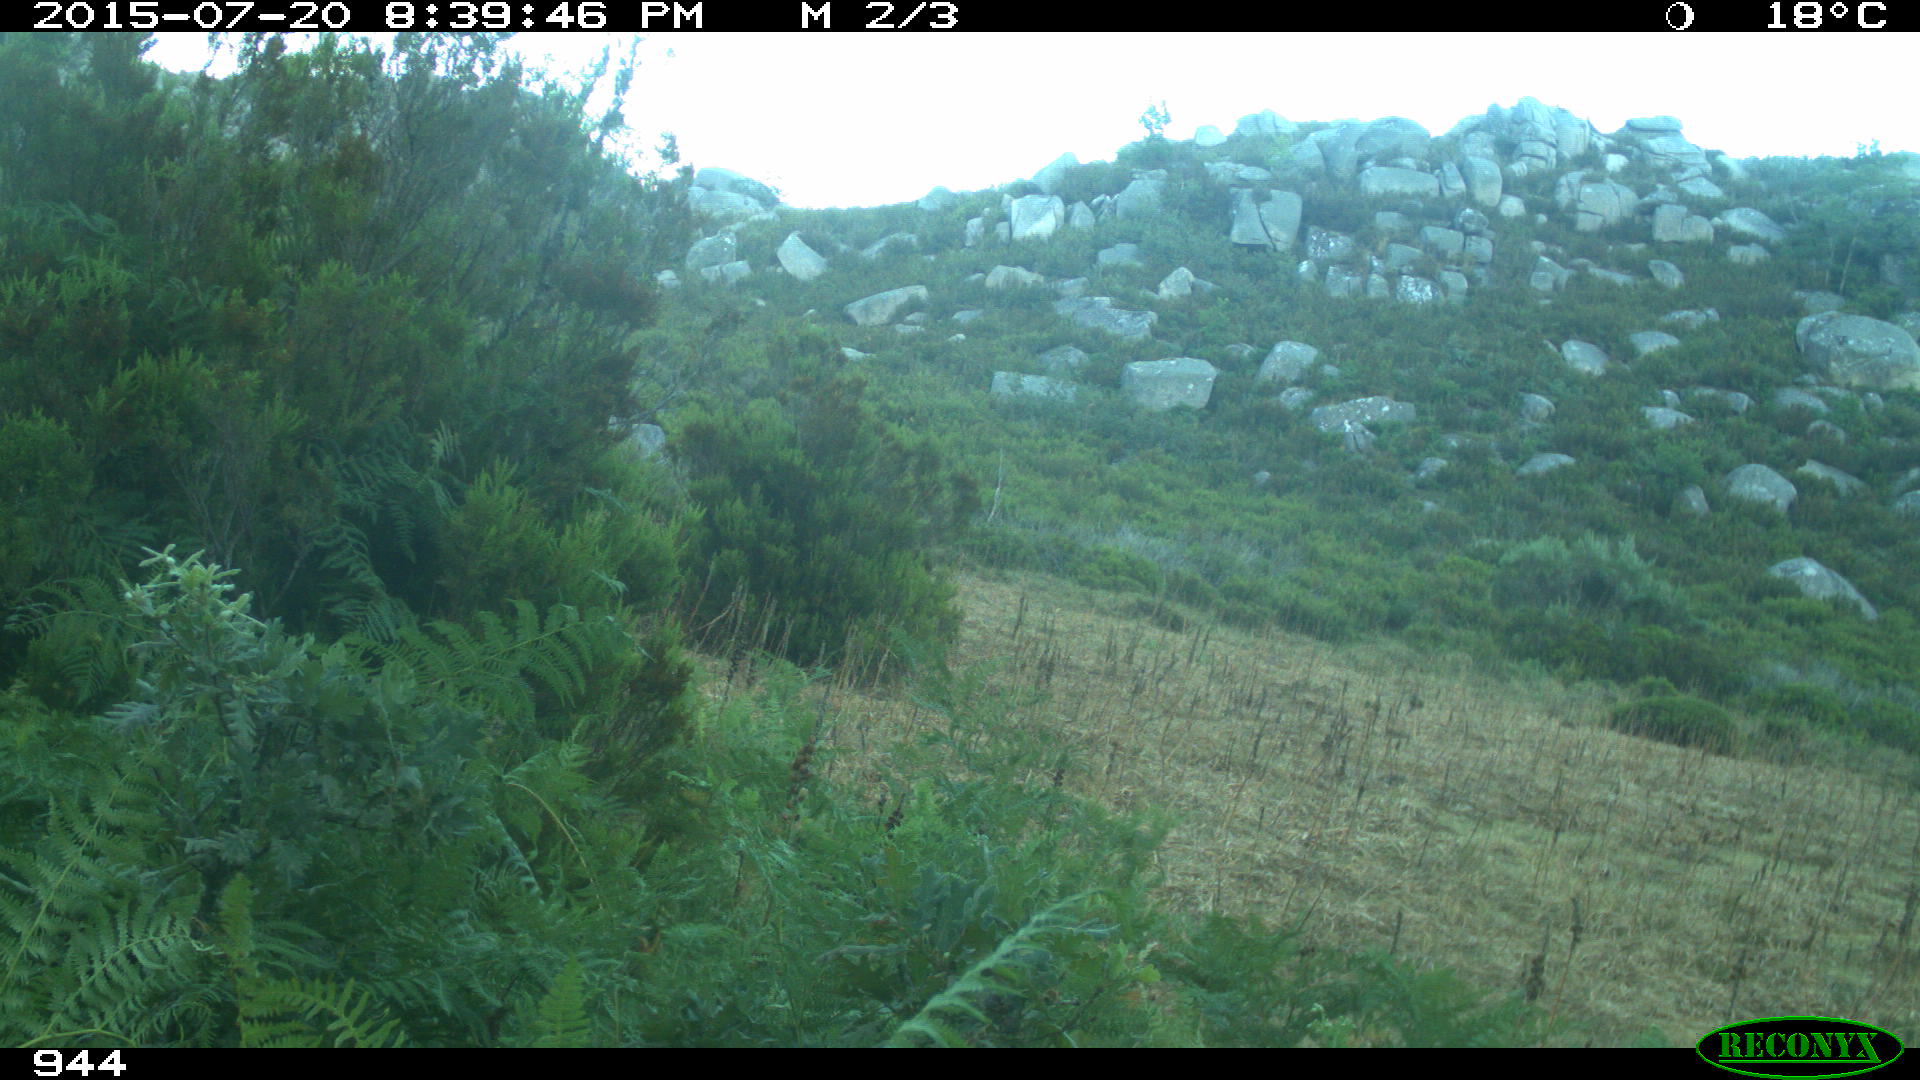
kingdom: Animalia
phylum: Chordata
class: Mammalia
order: Artiodactyla
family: Bovidae
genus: Bos
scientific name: Bos taurus
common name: Domesticated cattle
